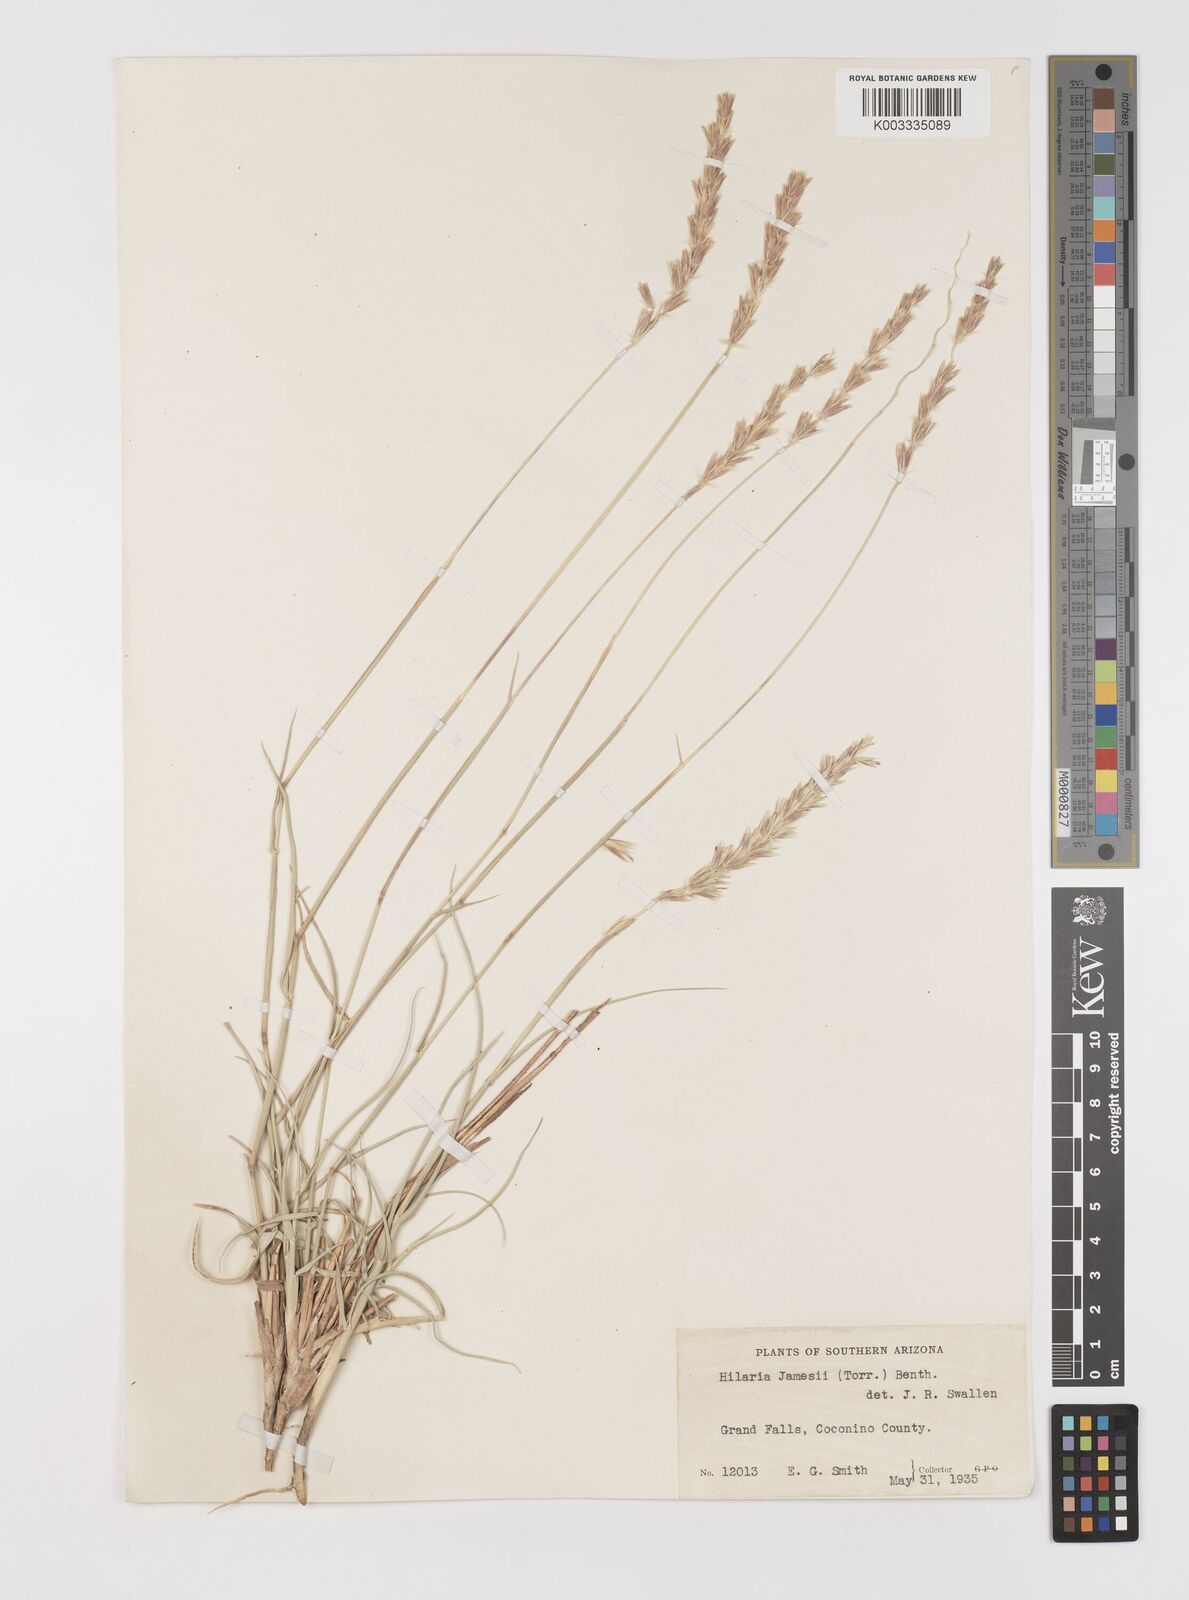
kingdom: Plantae
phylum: Tracheophyta
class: Liliopsida
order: Poales
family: Poaceae
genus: Hilaria
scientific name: Hilaria jamesii
